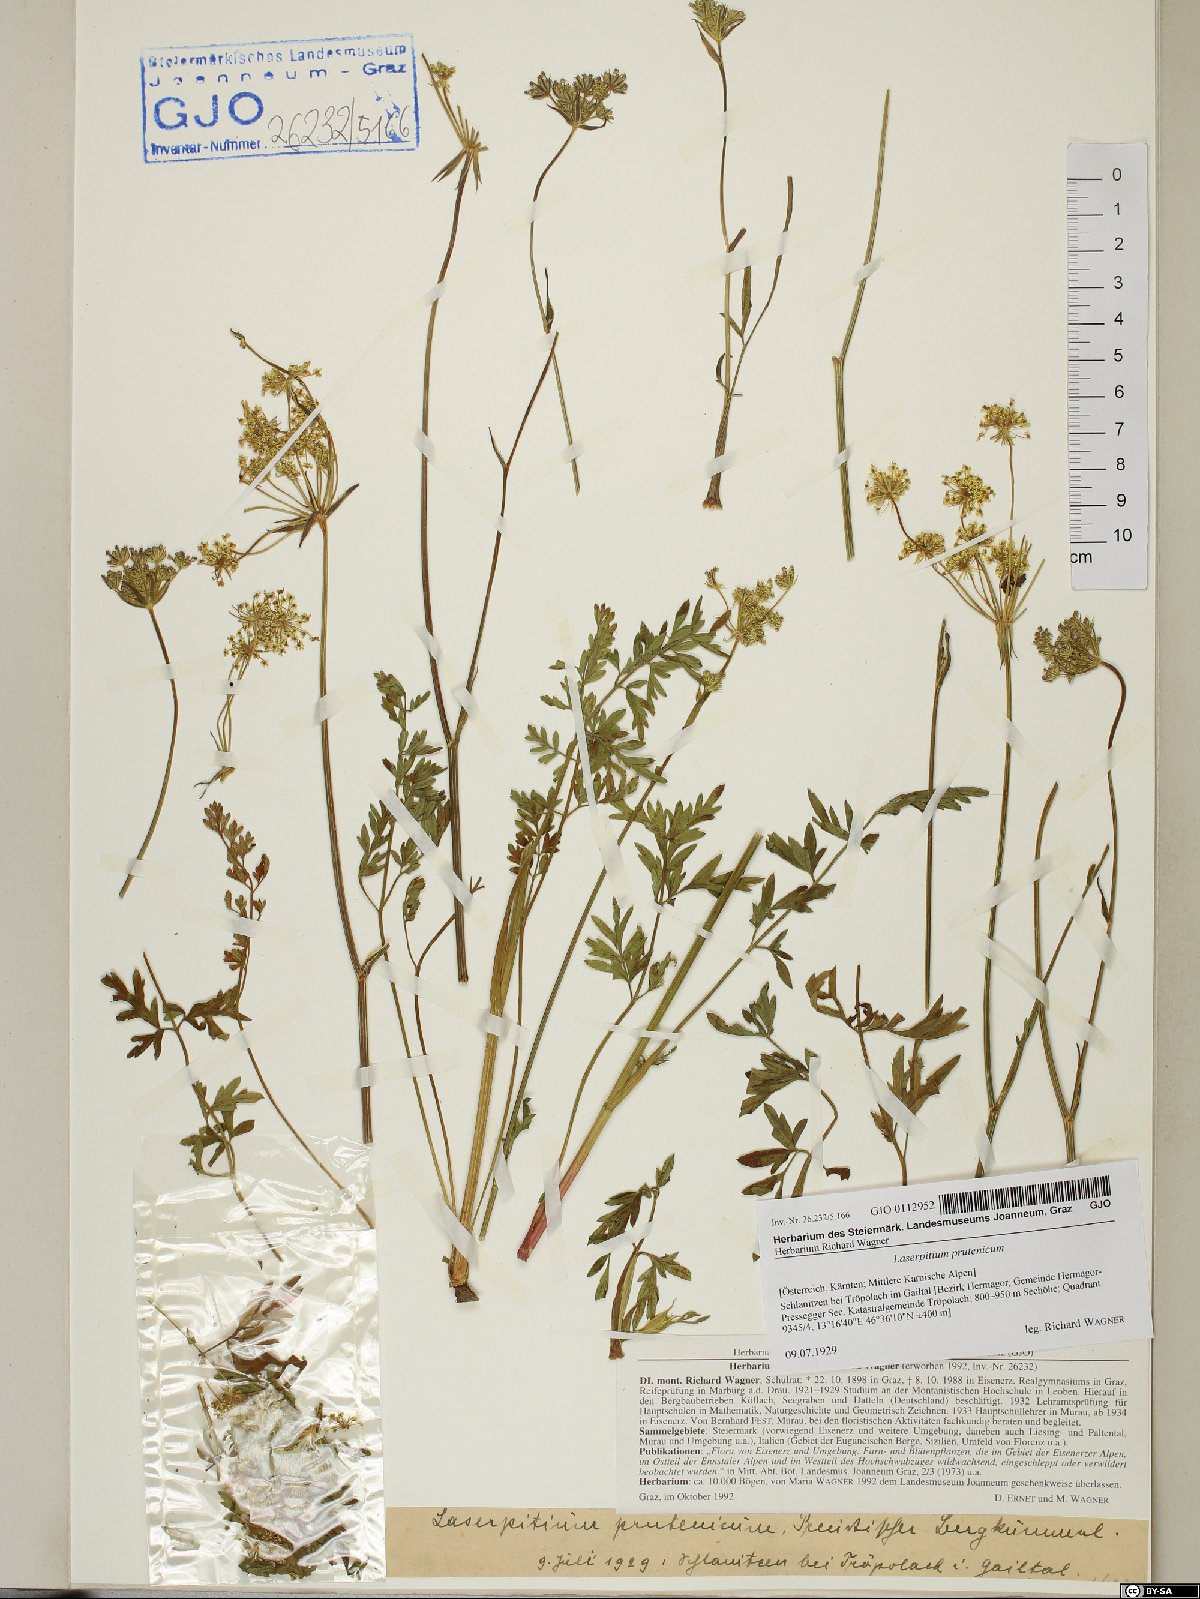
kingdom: Plantae
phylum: Tracheophyta
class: Magnoliopsida
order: Apiales
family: Apiaceae
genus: Silphiodaucus
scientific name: Silphiodaucus prutenicus
